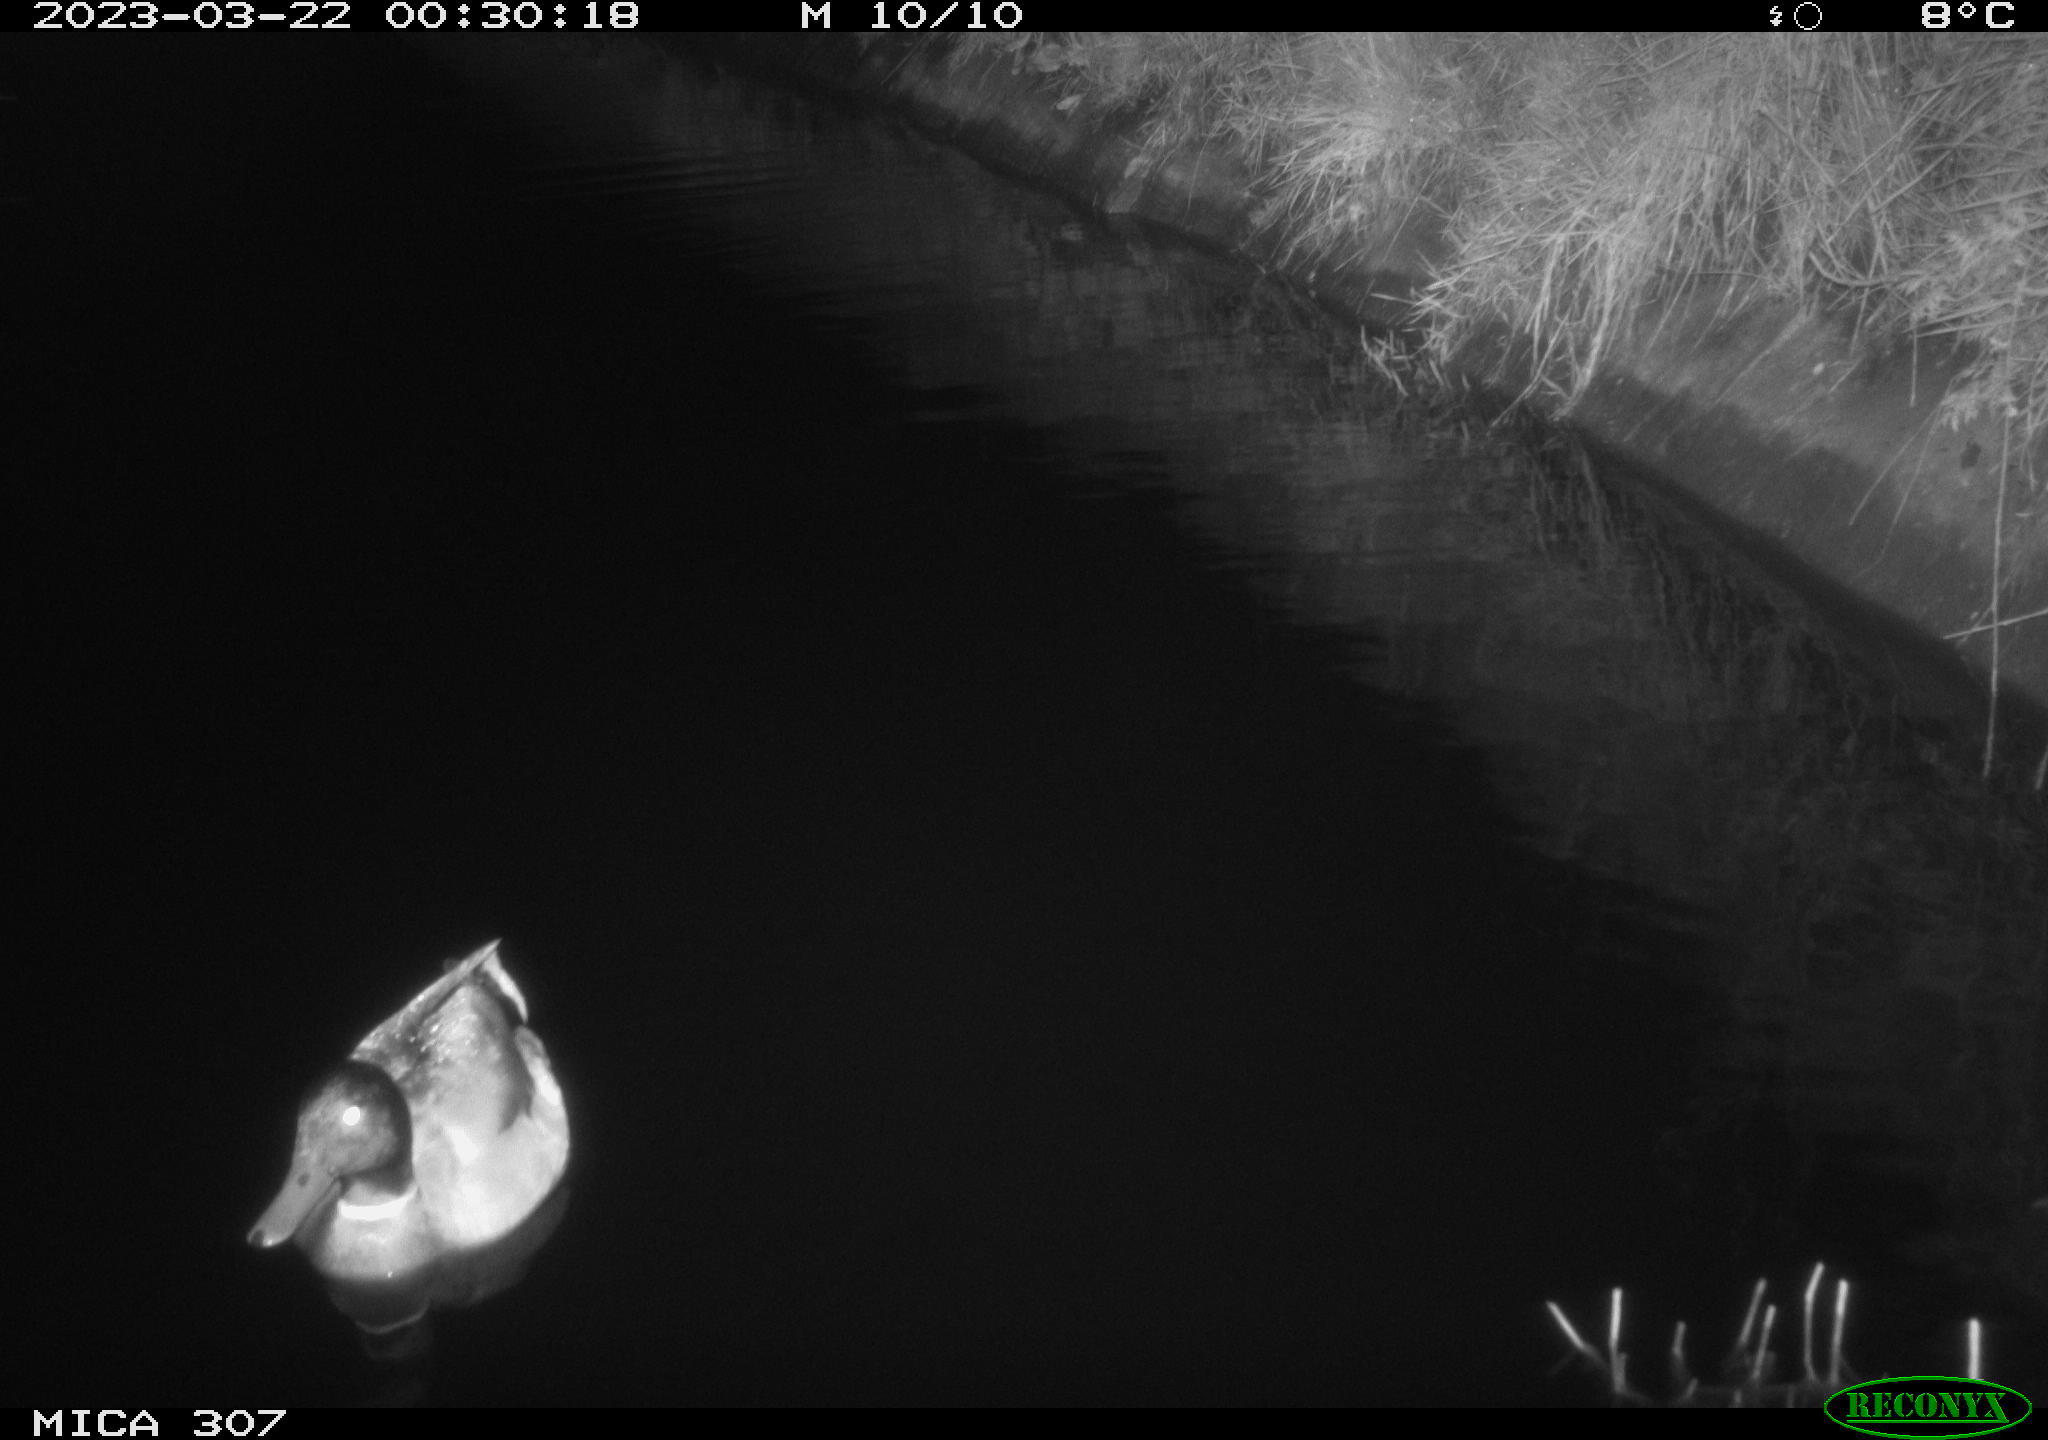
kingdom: Animalia
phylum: Chordata
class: Aves
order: Anseriformes
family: Anatidae
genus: Anas
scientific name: Anas
